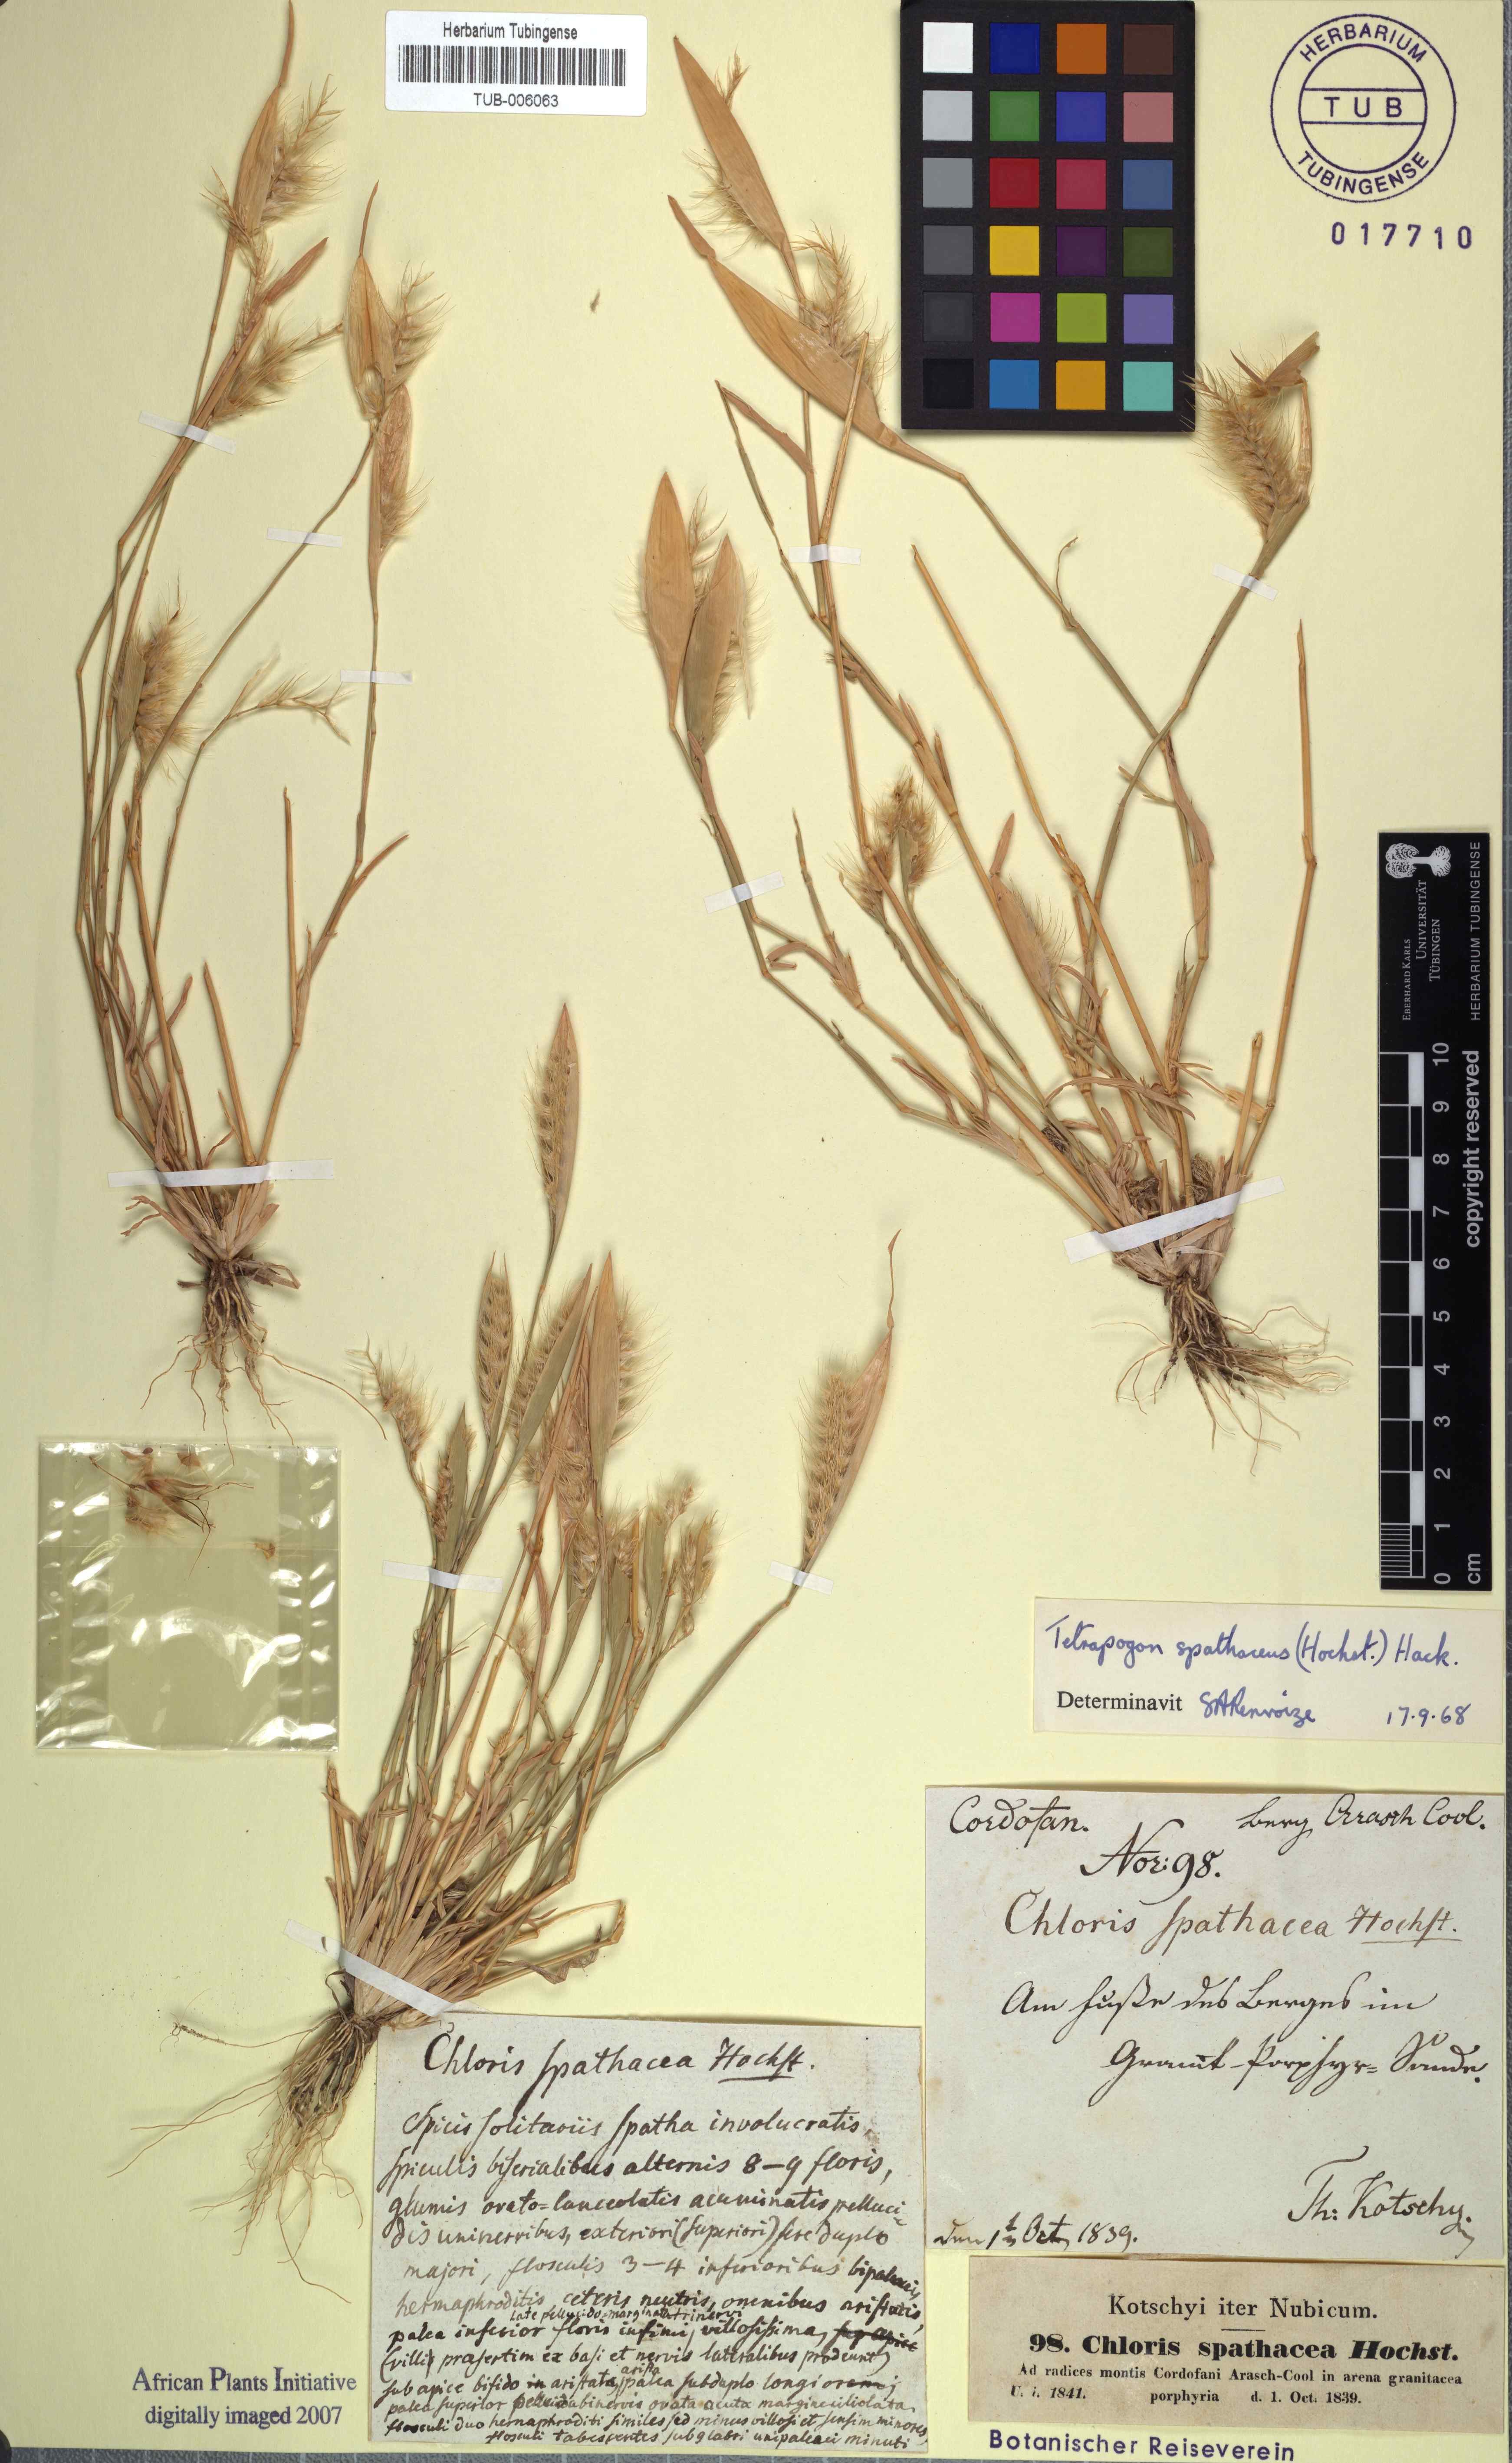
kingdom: Plantae
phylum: Tracheophyta
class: Liliopsida
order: Poales
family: Poaceae
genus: Tetrapogon
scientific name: Tetrapogon cenchriformis
